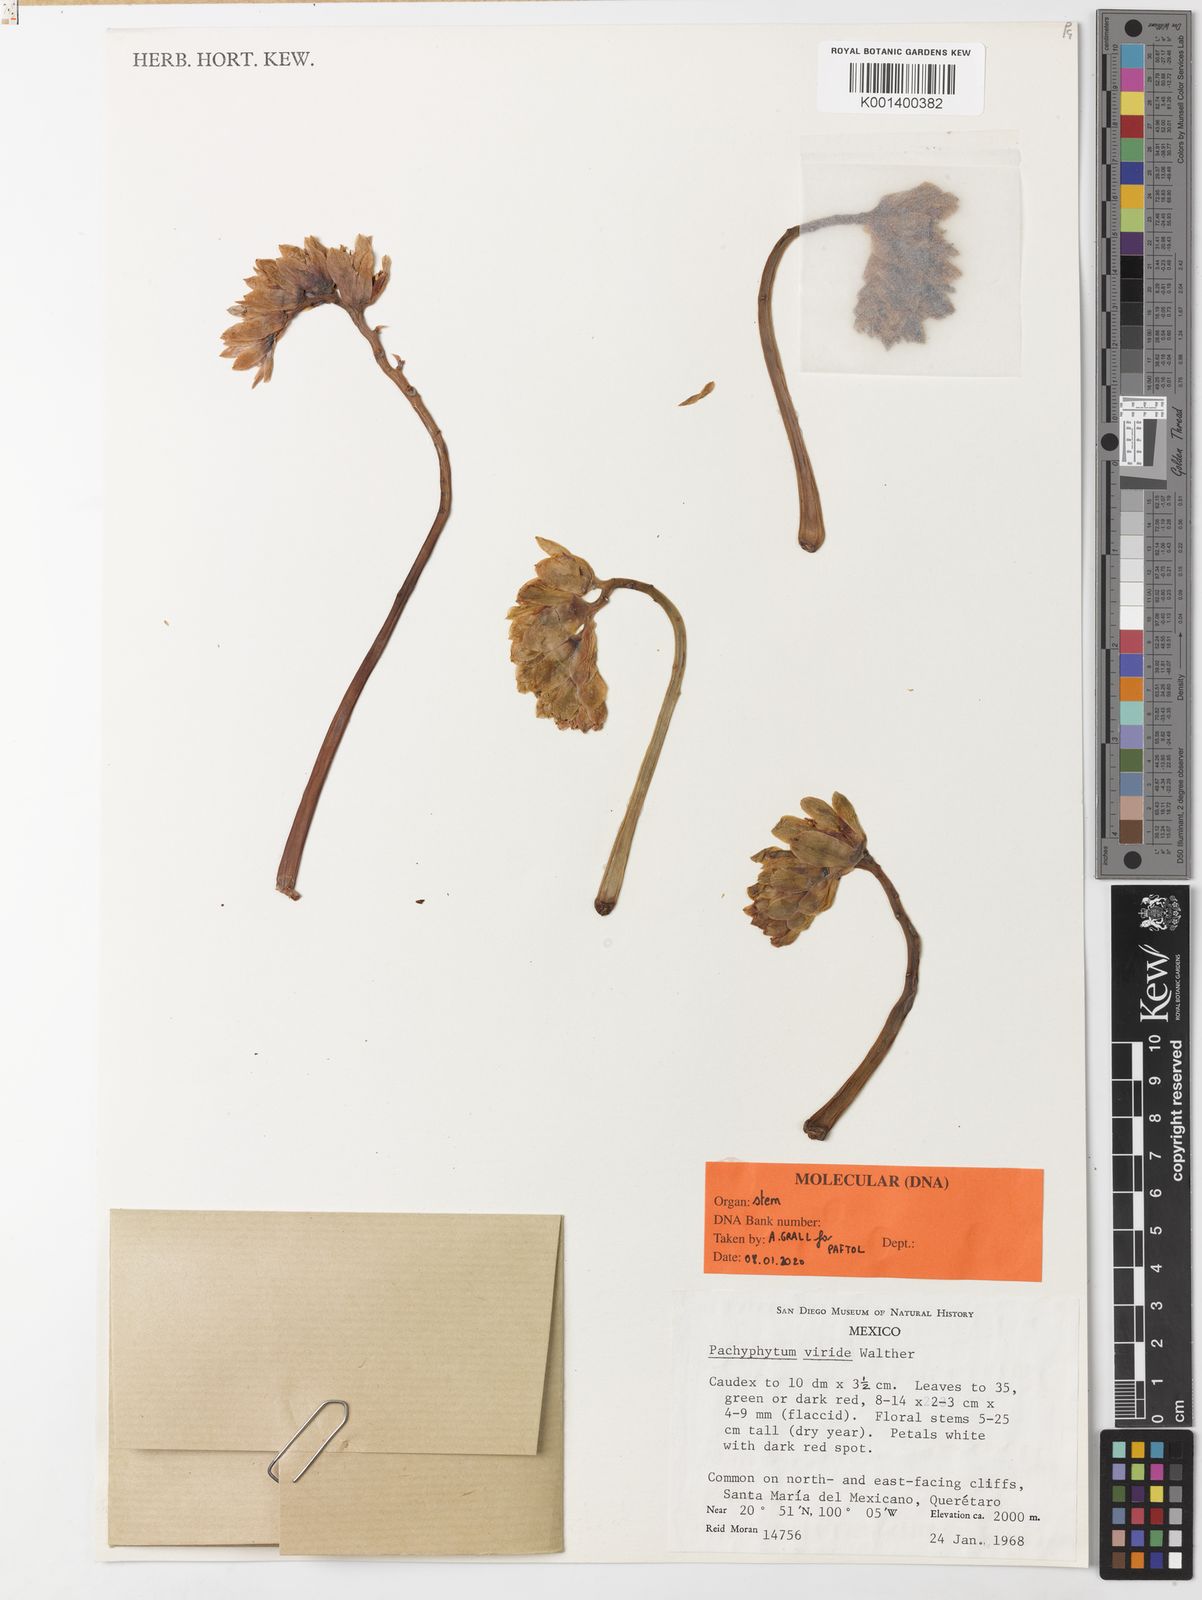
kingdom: Plantae
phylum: Tracheophyta
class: Magnoliopsida
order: Saxifragales
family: Crassulaceae
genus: Pachyphytum
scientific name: Pachyphytum viride
